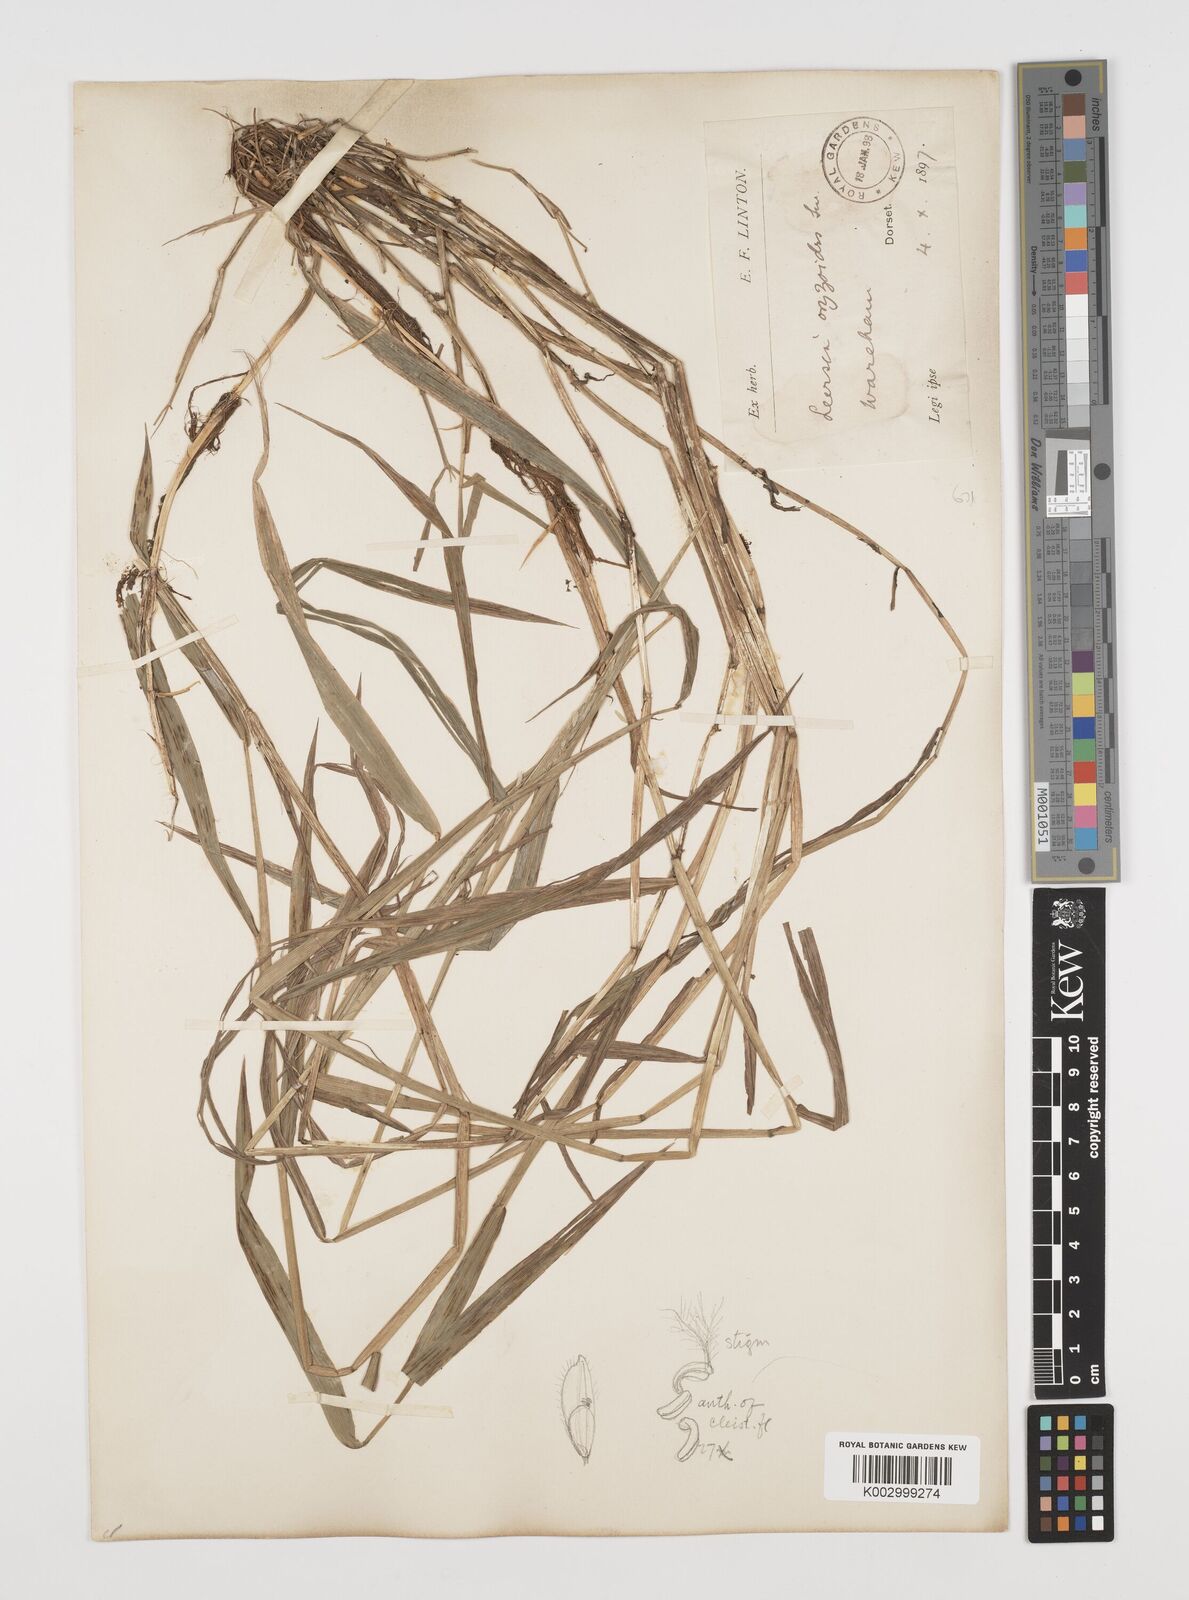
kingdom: Plantae
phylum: Tracheophyta
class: Liliopsida
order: Poales
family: Poaceae
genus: Leersia
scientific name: Leersia oryzoides
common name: Cut-grass
